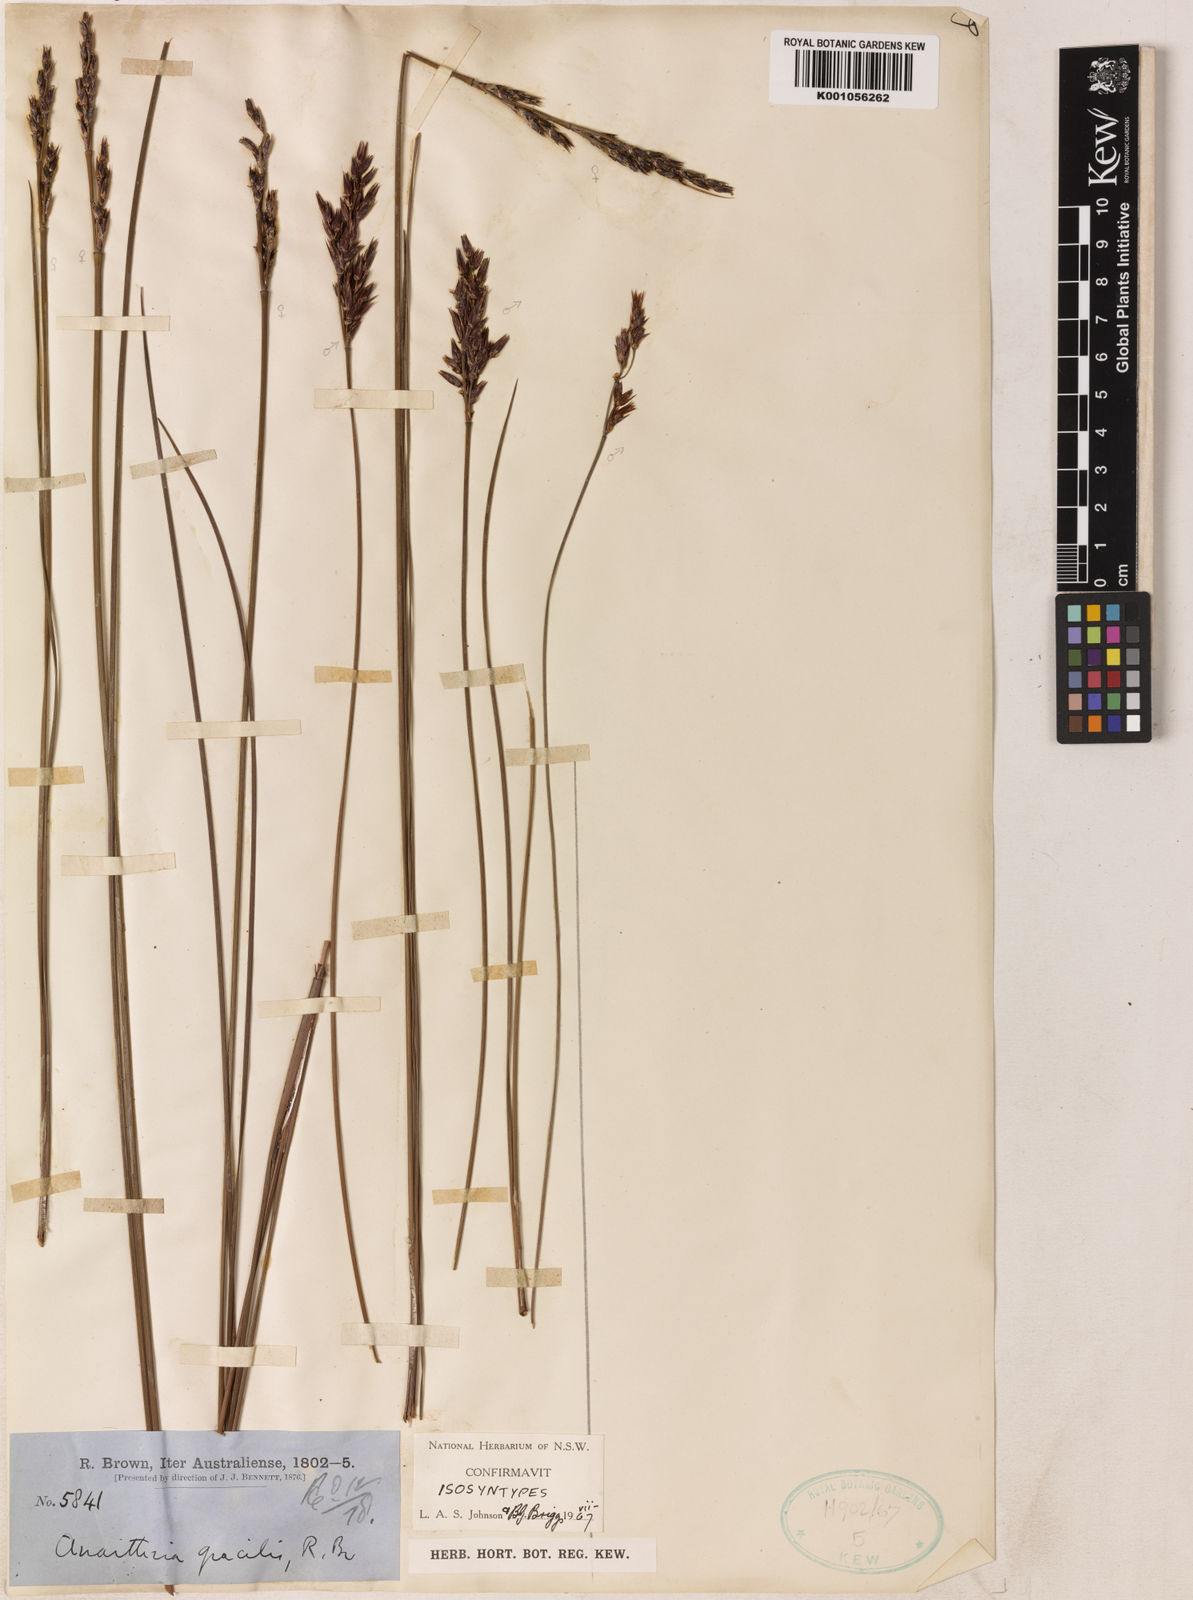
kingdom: Plantae
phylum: Tracheophyta
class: Liliopsida
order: Poales
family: Restionaceae
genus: Anarthria
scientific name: Anarthria gracilis
